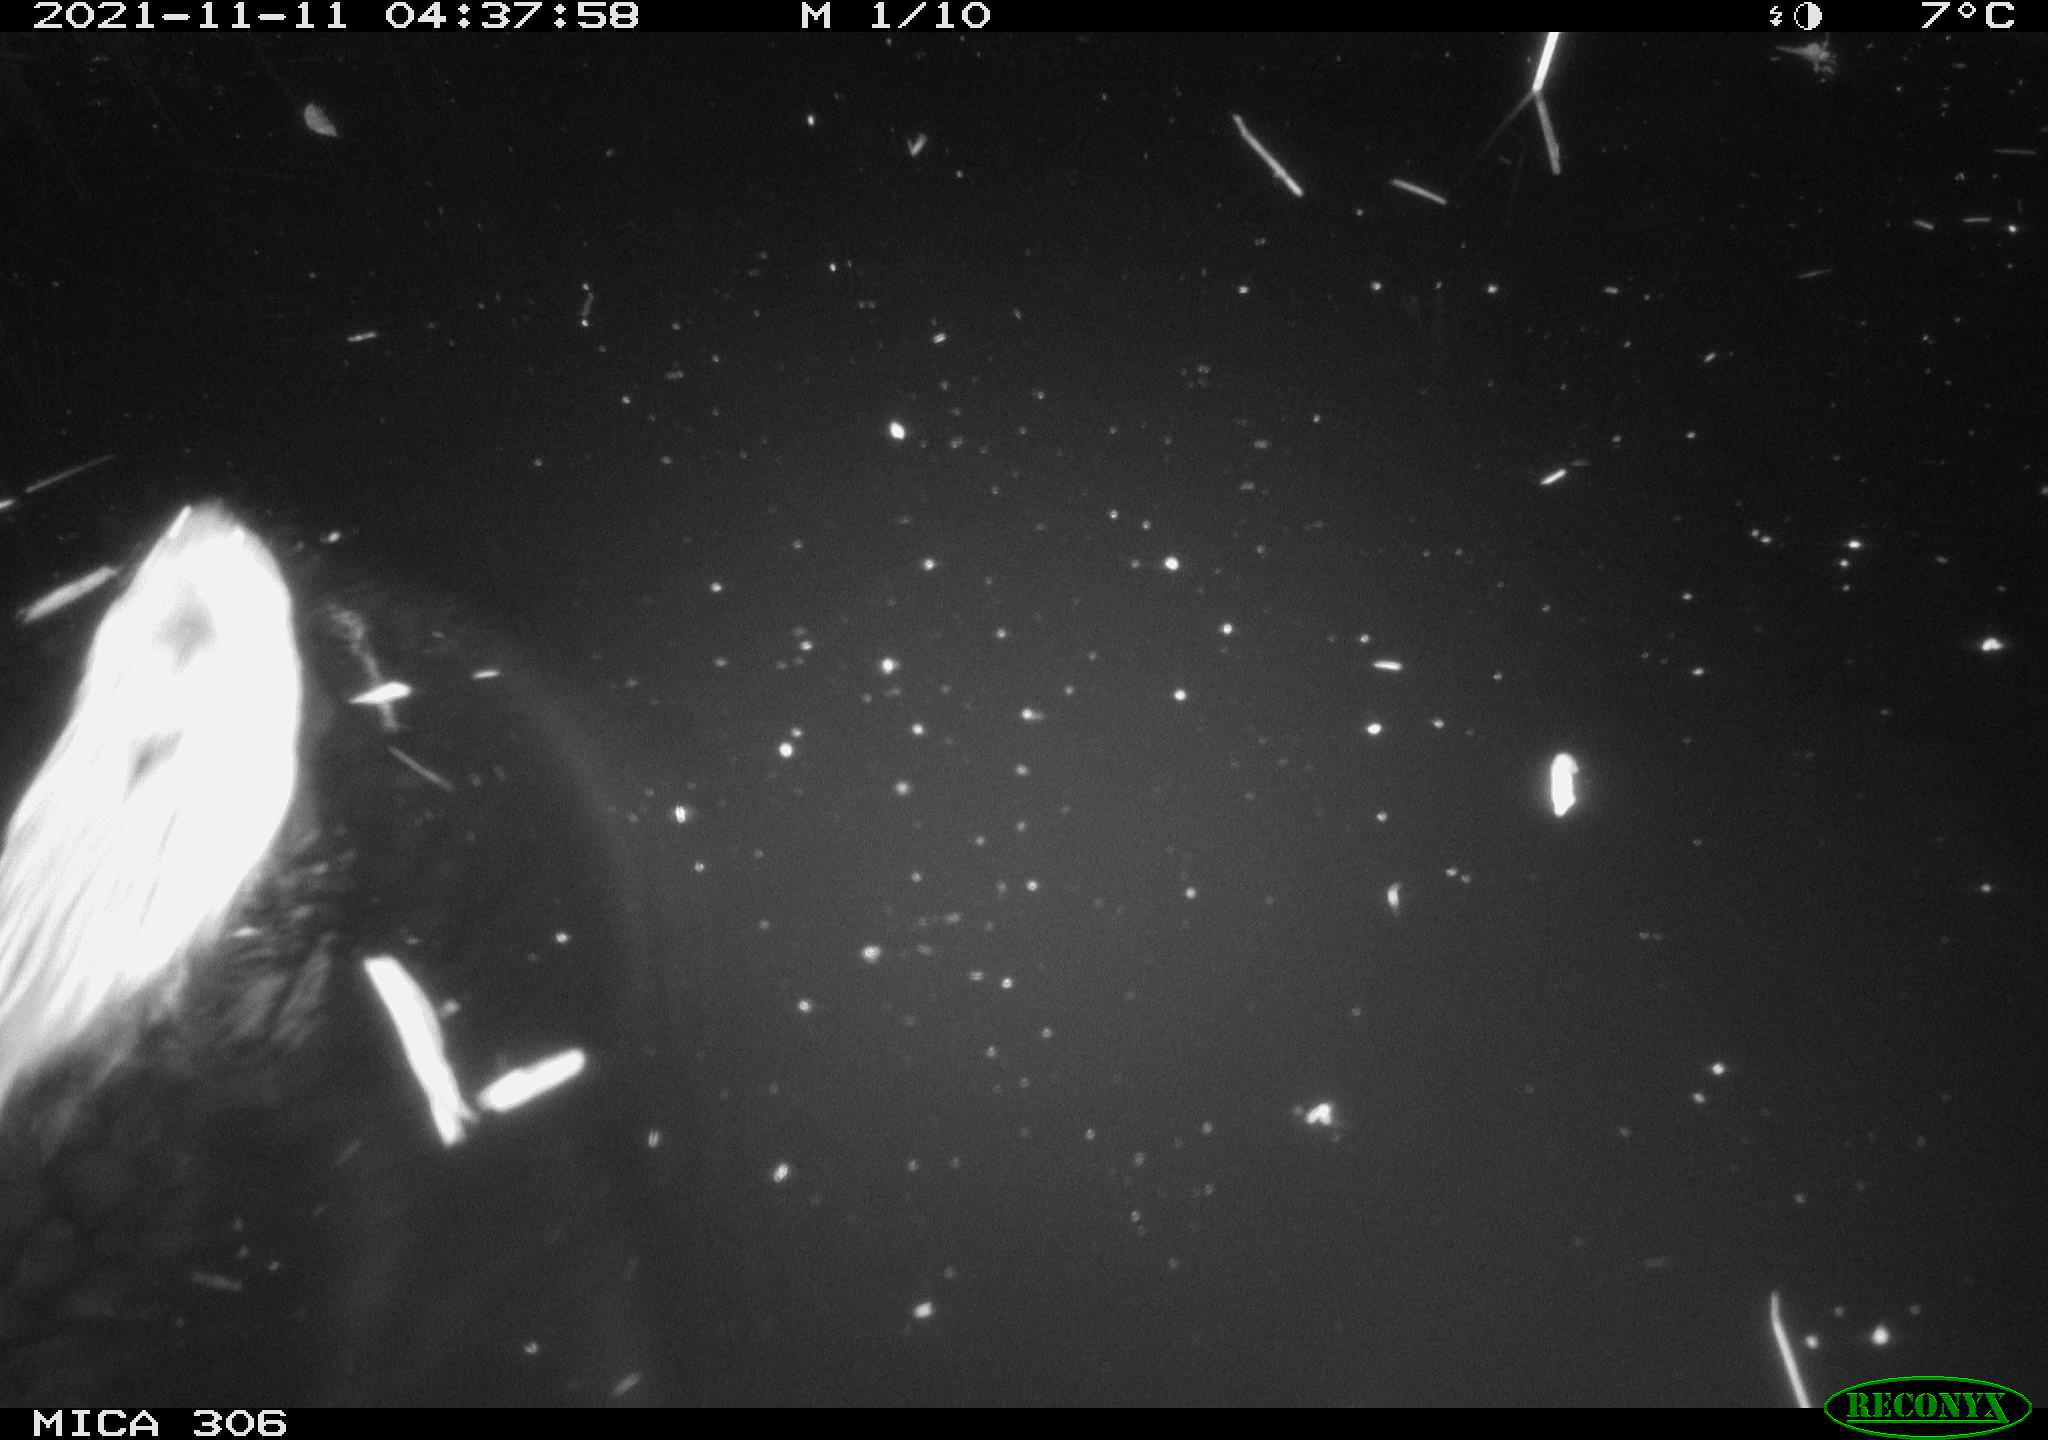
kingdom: Animalia
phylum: Chordata
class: Mammalia
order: Rodentia
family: Cricetidae
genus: Ondatra
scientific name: Ondatra zibethicus
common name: Muskrat
